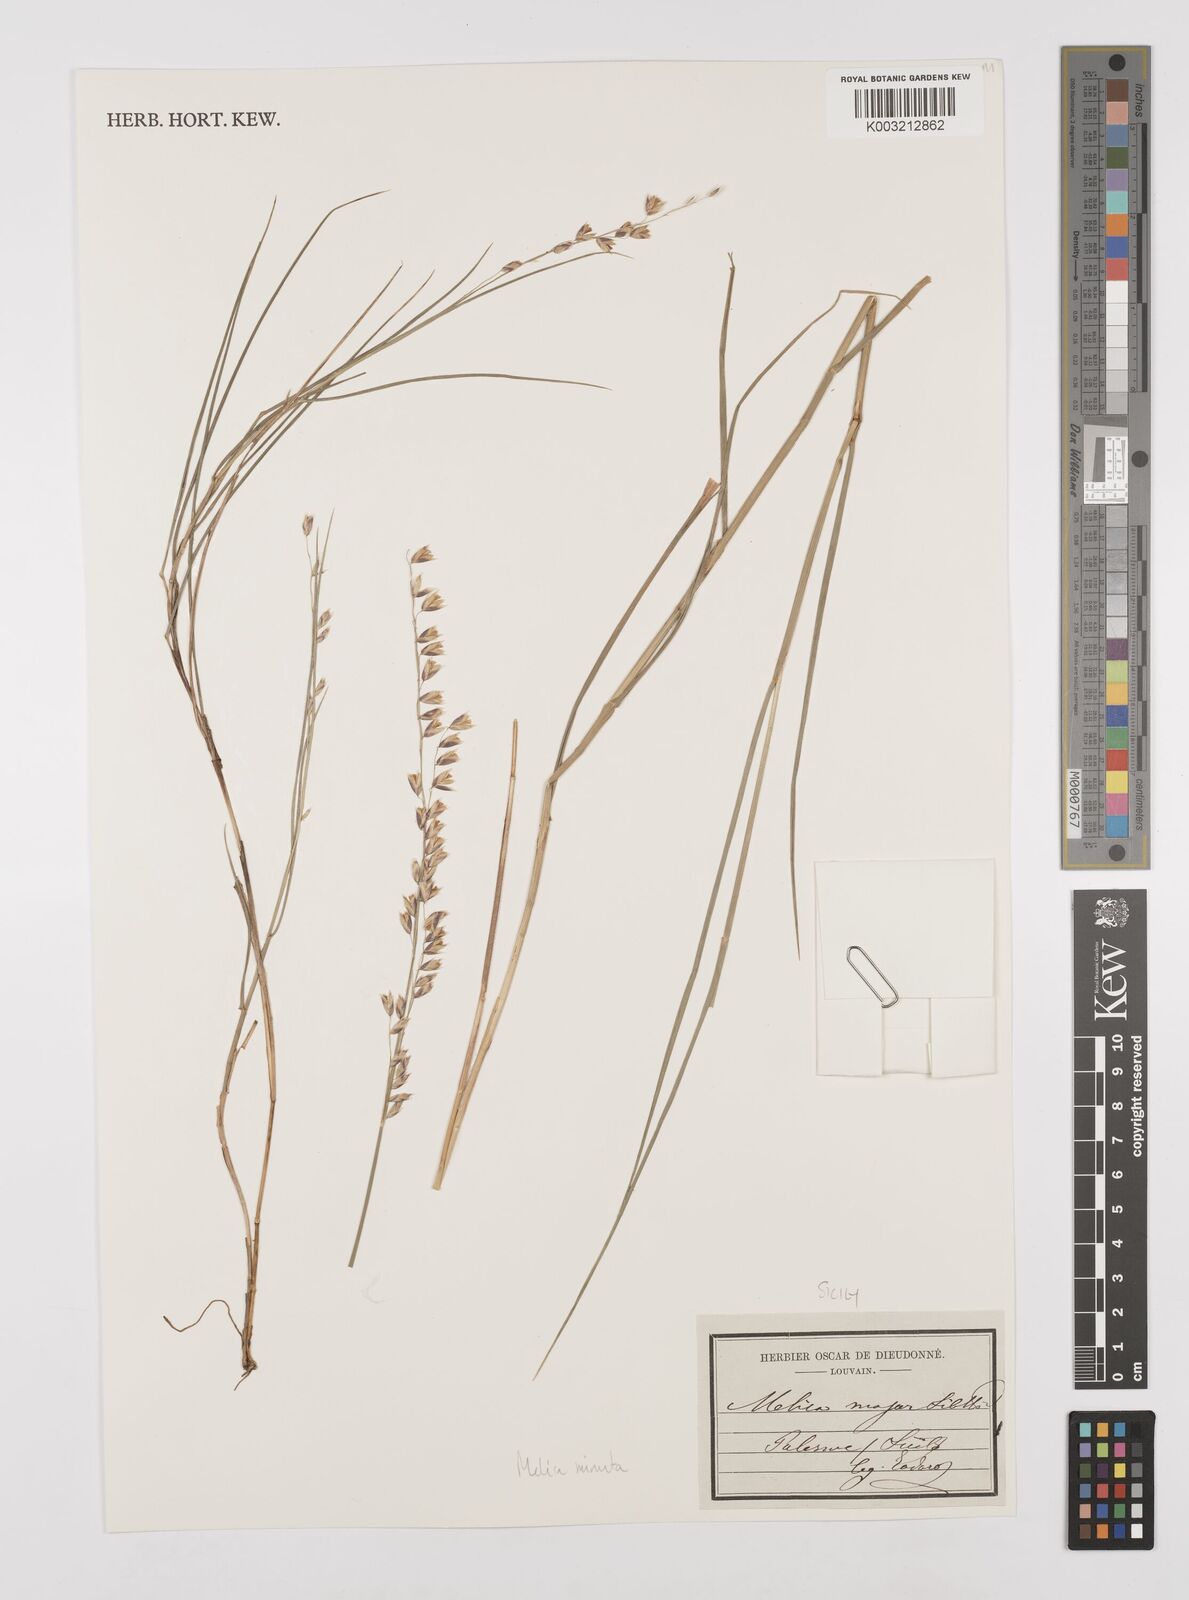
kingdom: Plantae
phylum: Tracheophyta
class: Liliopsida
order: Poales
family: Poaceae
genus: Melica
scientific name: Melica minuta
